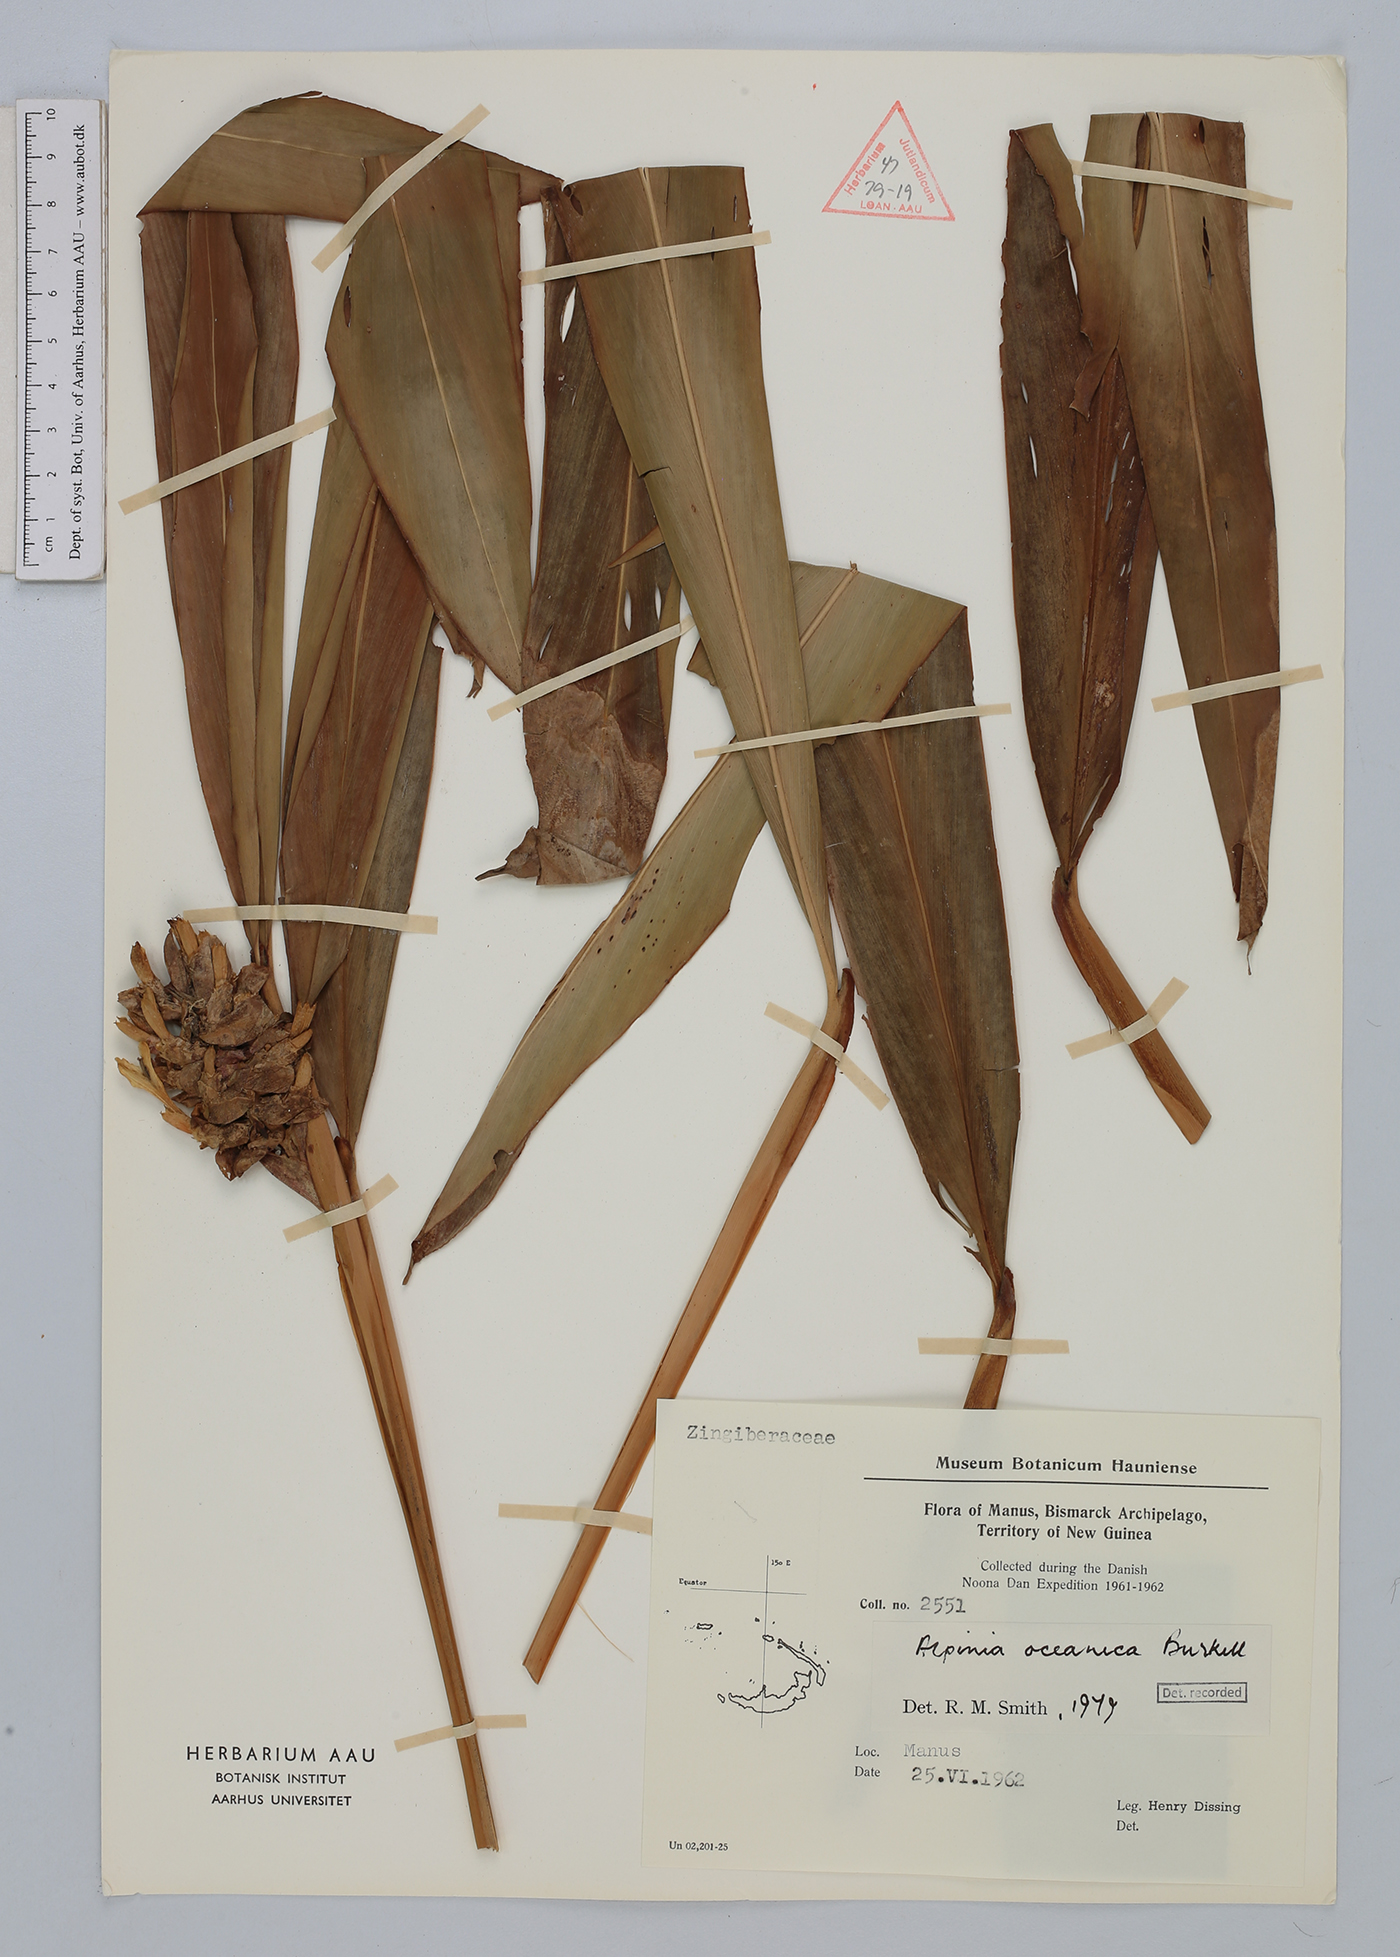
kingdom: Plantae
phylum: Tracheophyta
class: Liliopsida
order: Zingiberales
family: Zingiberaceae
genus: Alpinia
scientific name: Alpinia oceanica
